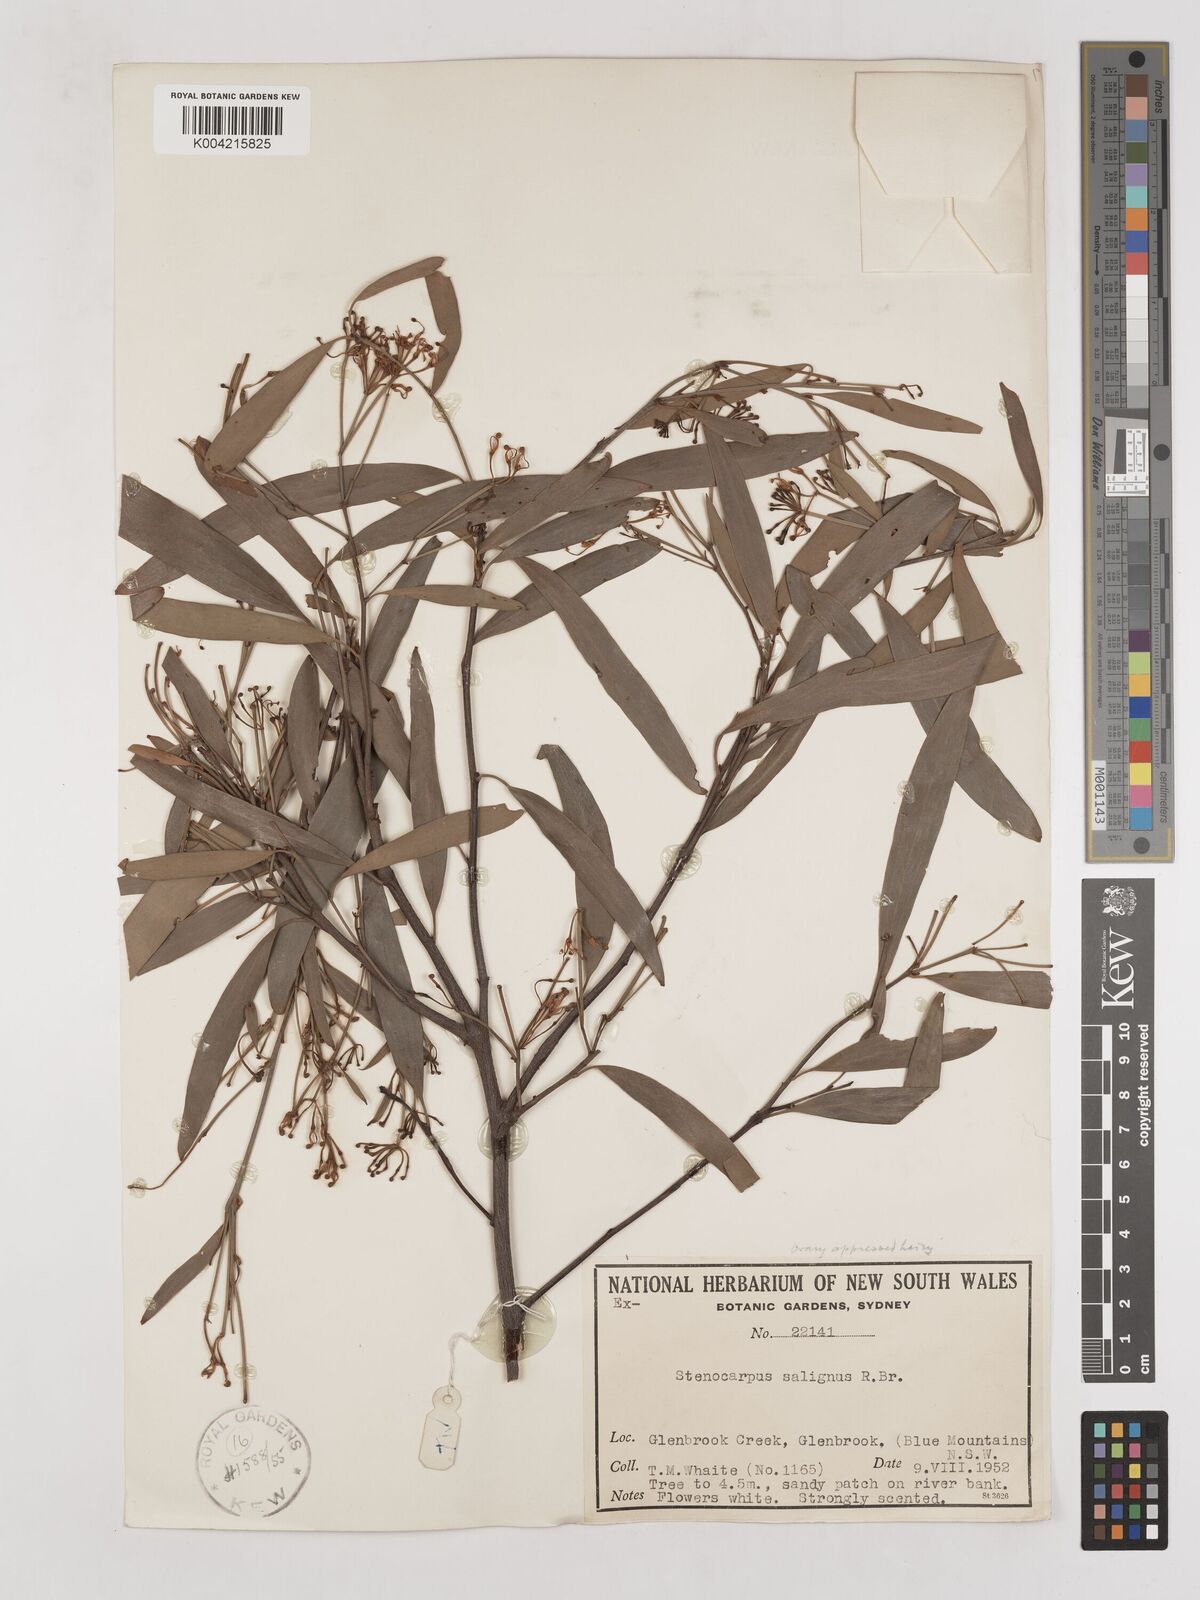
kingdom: Plantae
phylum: Tracheophyta
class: Magnoliopsida
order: Proteales
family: Proteaceae
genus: Stenocarpus
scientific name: Stenocarpus salignus
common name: Red silky-oak
